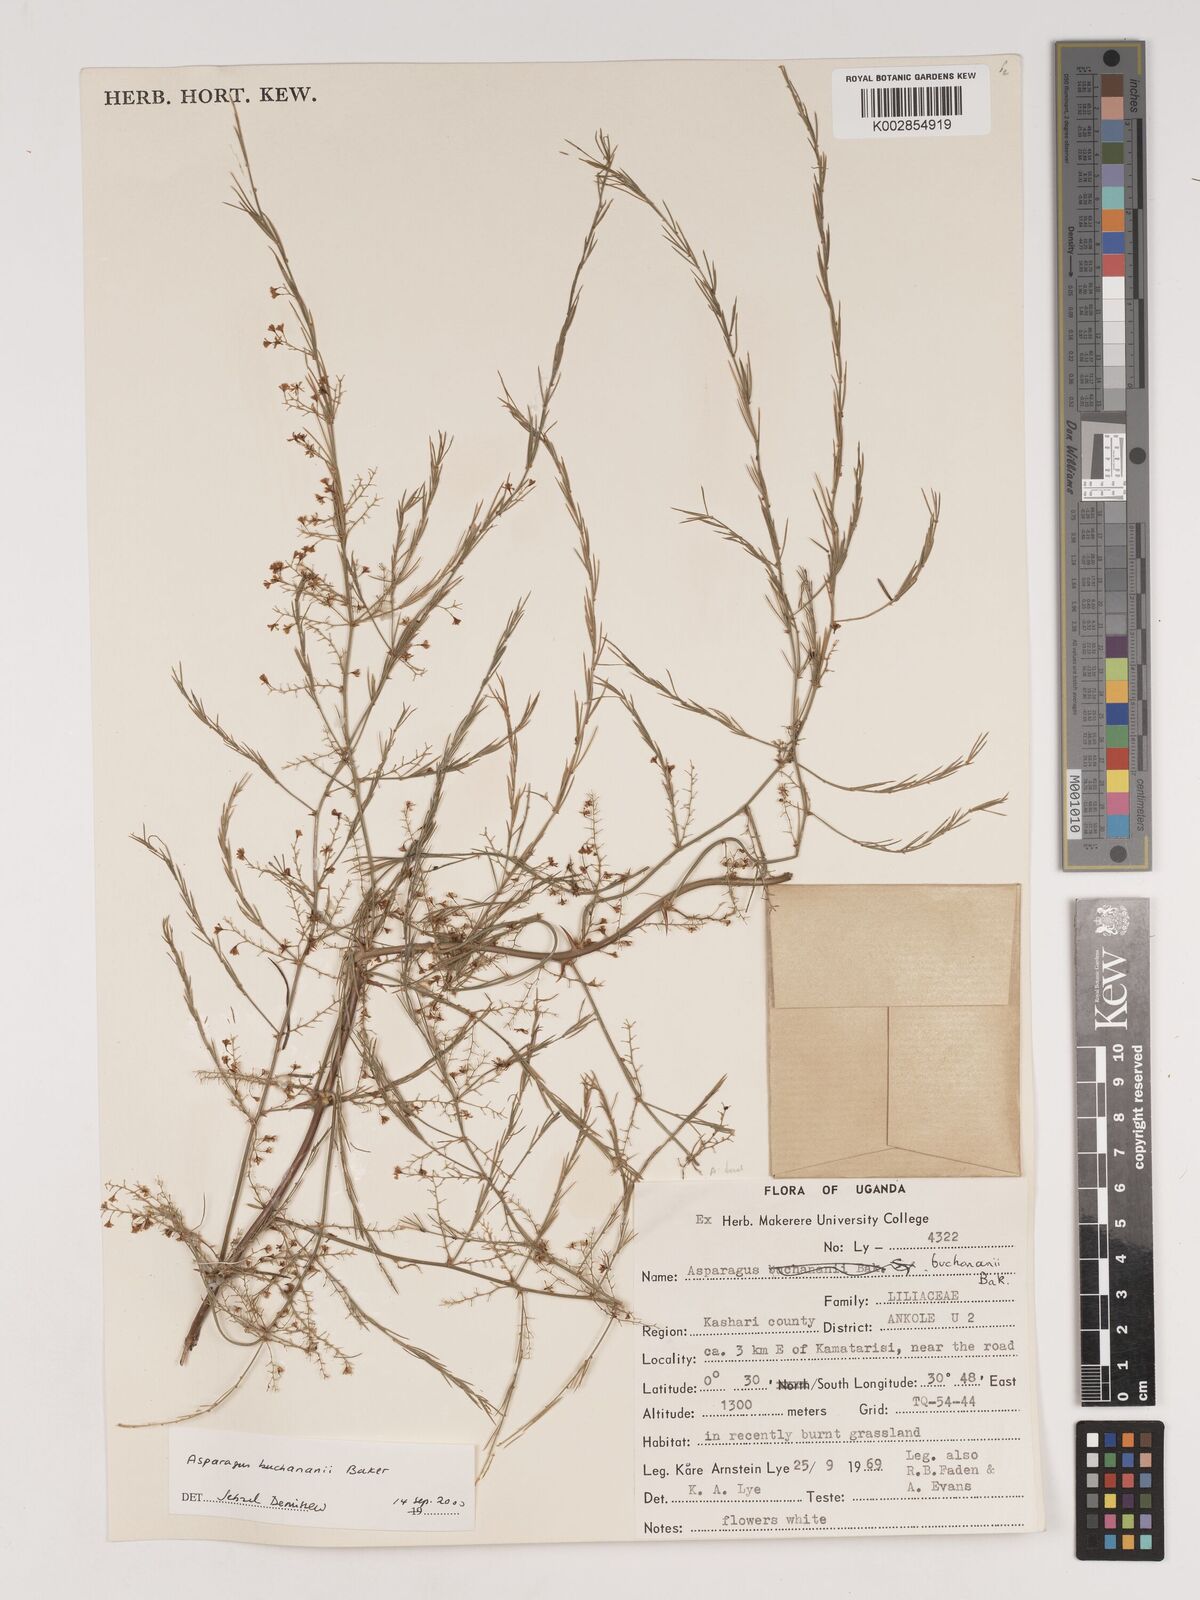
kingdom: Plantae
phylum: Tracheophyta
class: Liliopsida
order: Asparagales
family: Asparagaceae
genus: Asparagus
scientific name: Asparagus buchananii
